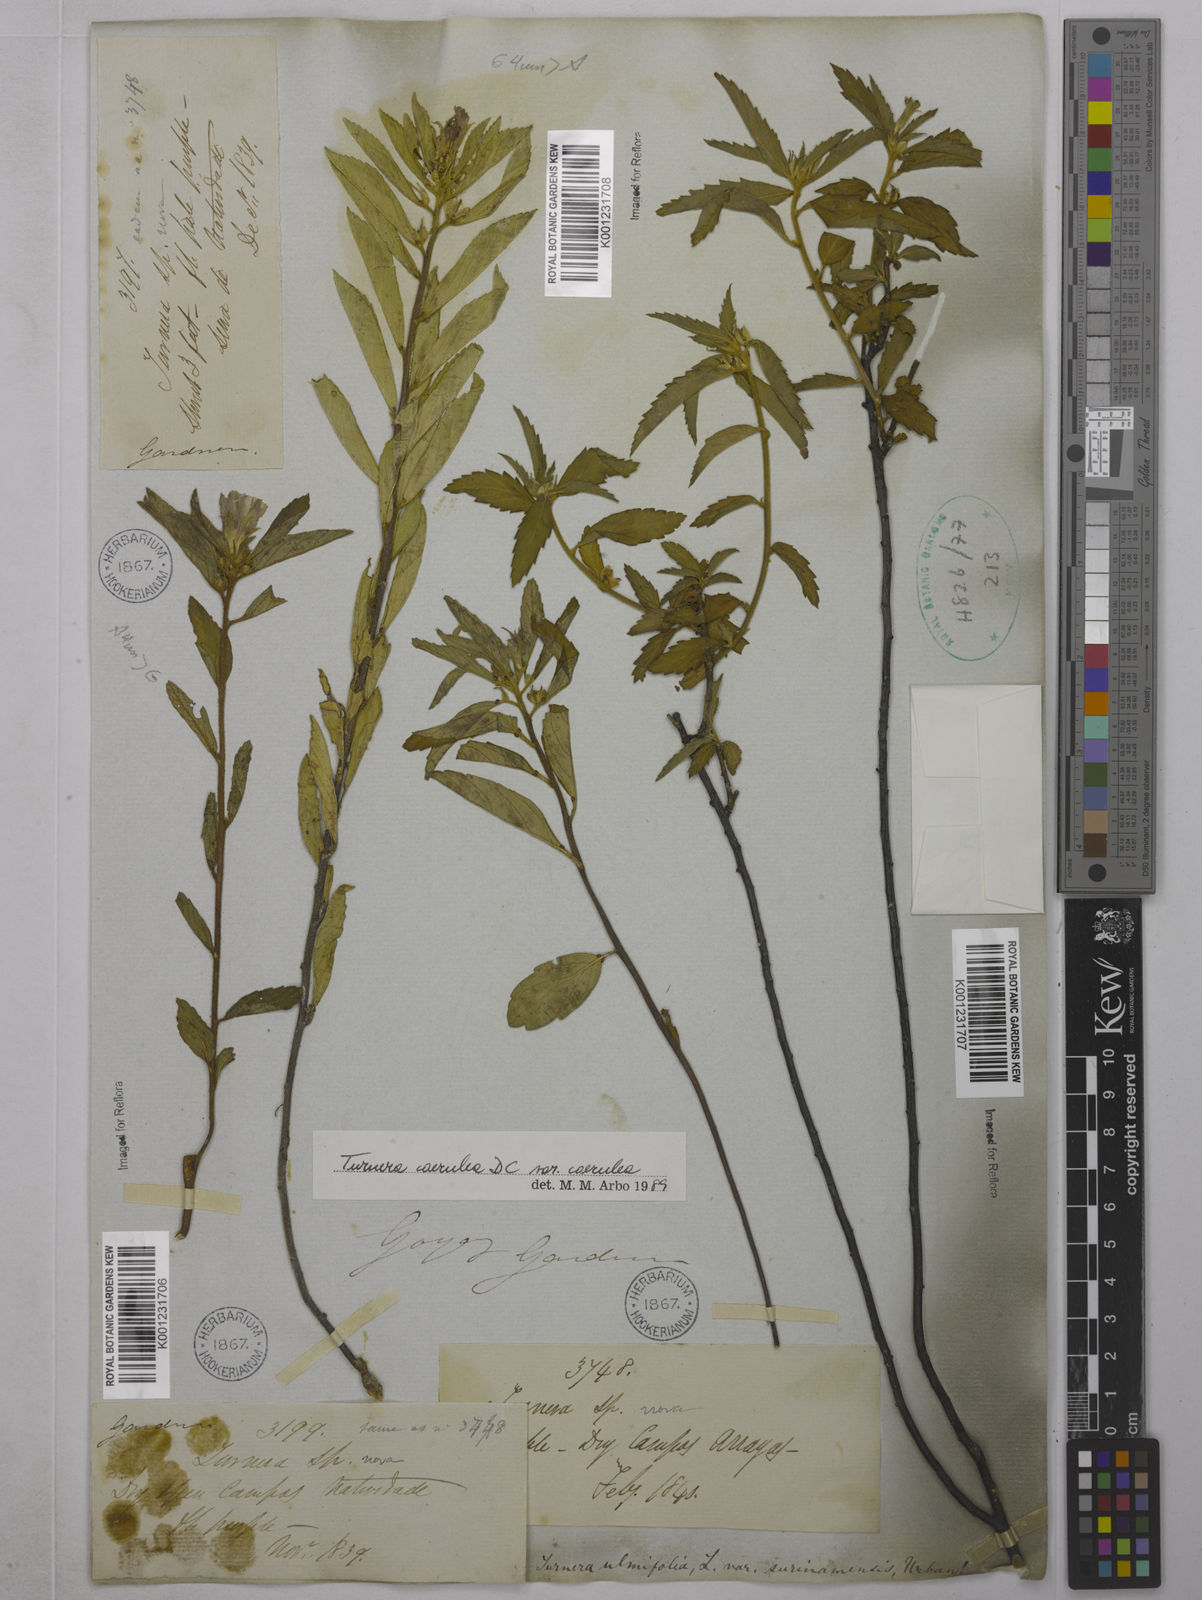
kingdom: Plantae
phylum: Tracheophyta
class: Magnoliopsida
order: Malpighiales
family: Turneraceae
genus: Turnera
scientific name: Turnera
